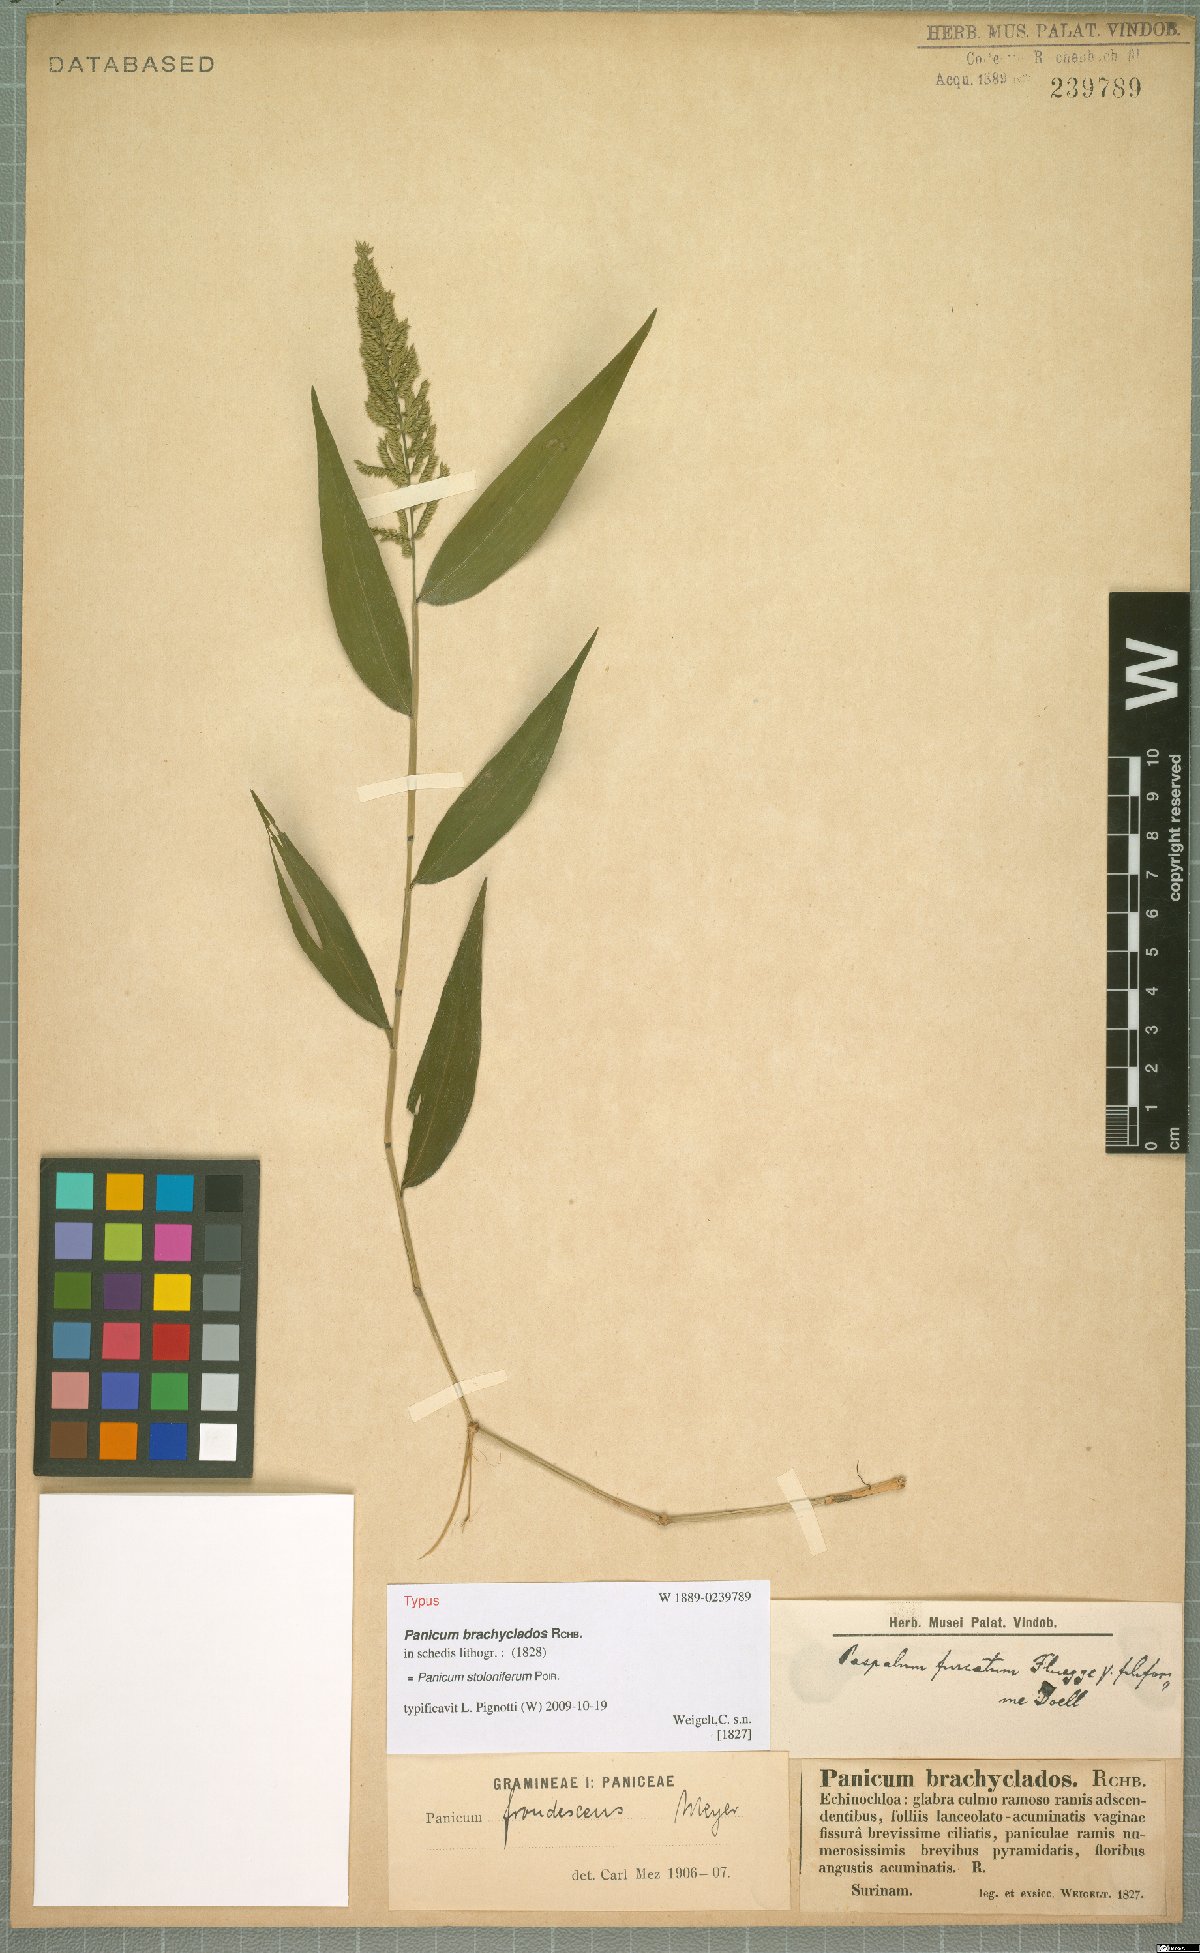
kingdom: Plantae
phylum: Tracheophyta
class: Liliopsida
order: Poales
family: Poaceae
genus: Ocellochloa
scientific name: Ocellochloa stolonifera
